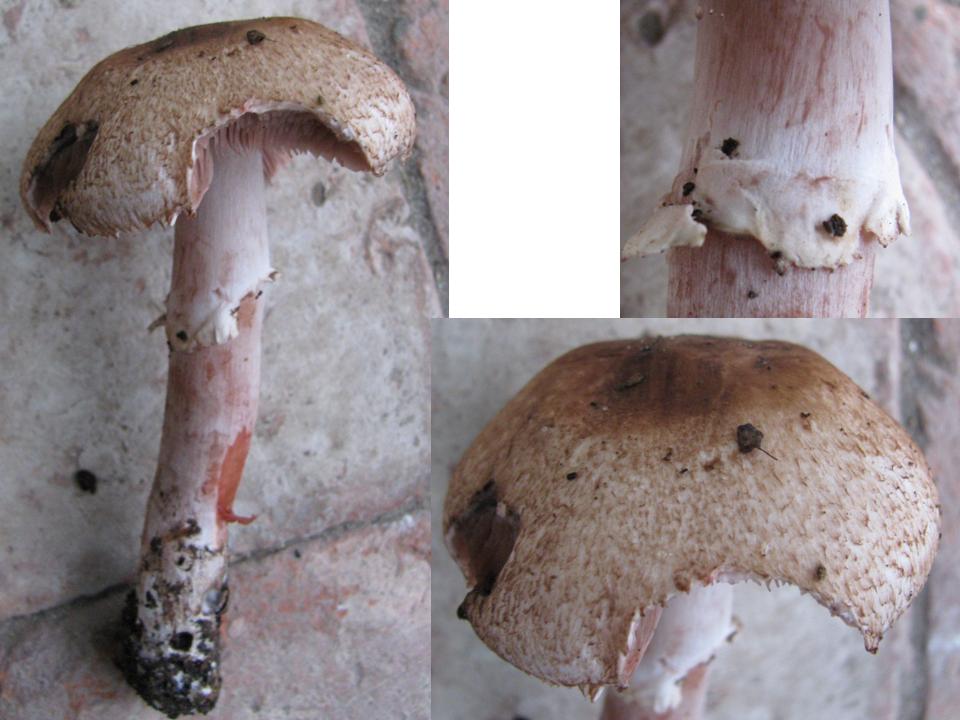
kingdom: Fungi
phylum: Basidiomycota
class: Agaricomycetes
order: Agaricales
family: Agaricaceae
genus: Agaricus
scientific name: Agaricus langei
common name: stor blod-champignon
